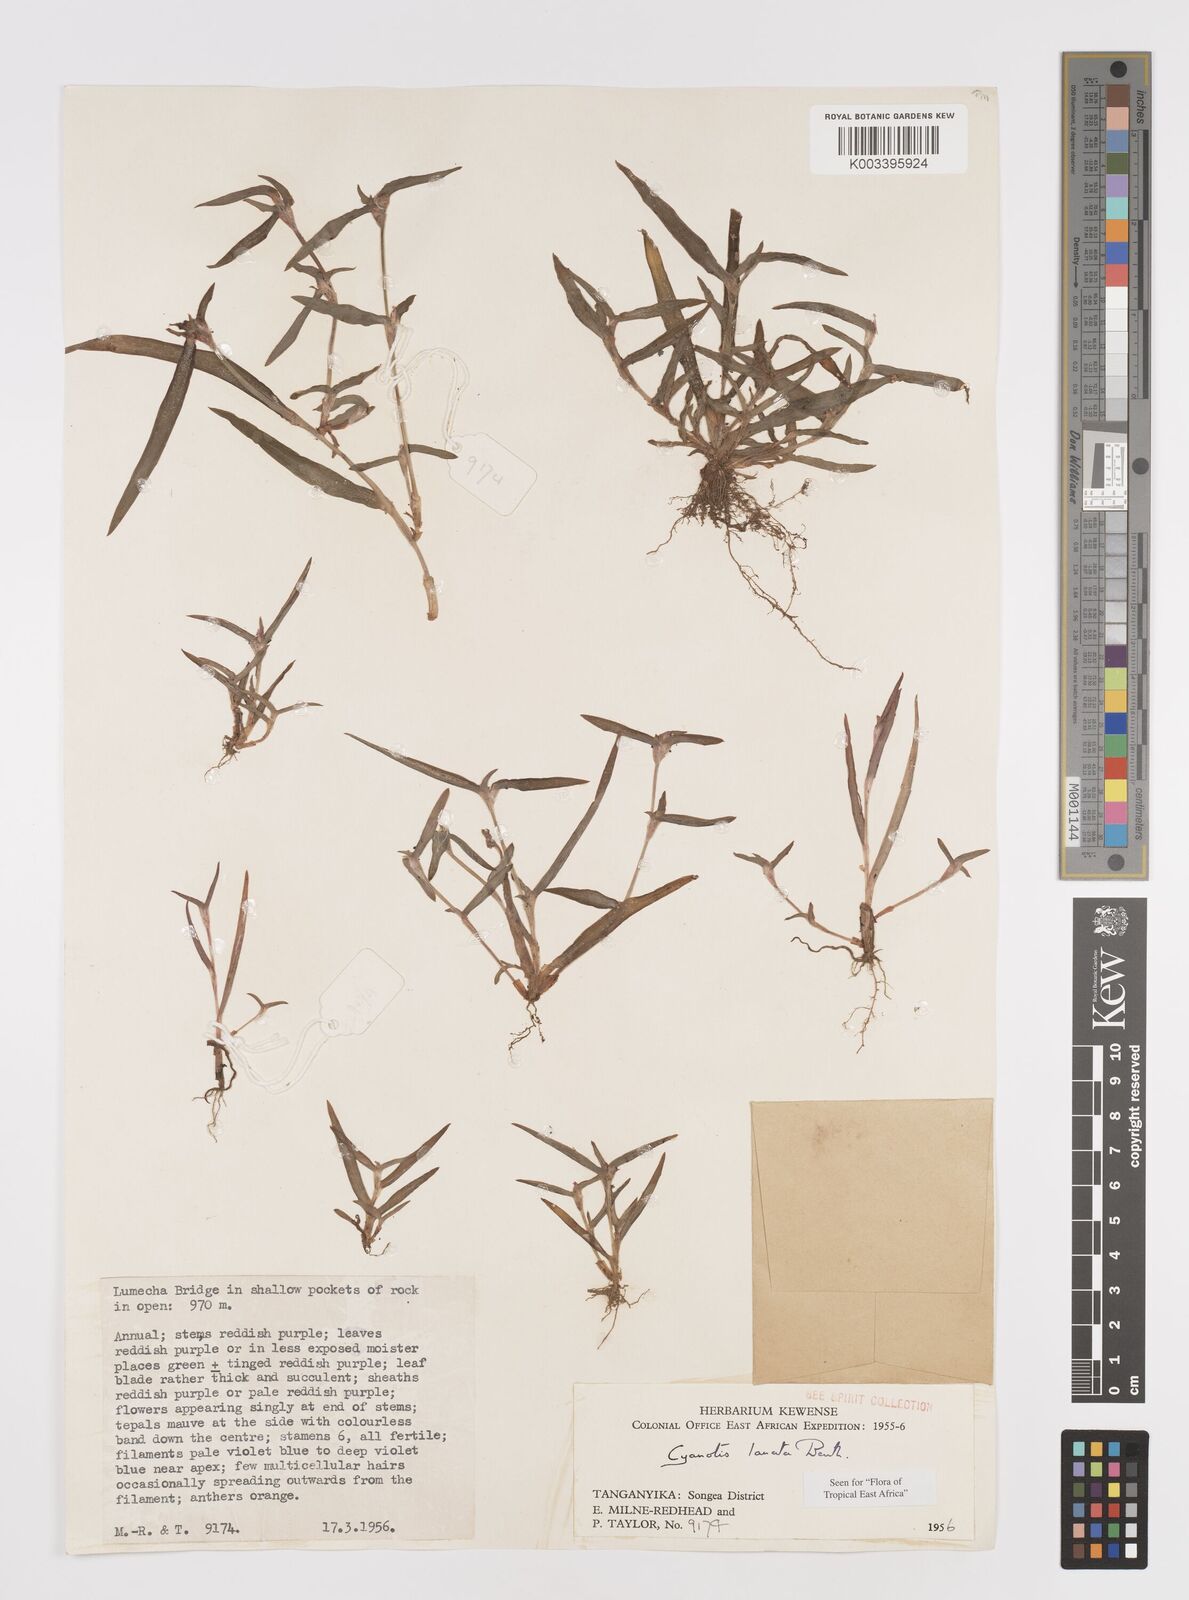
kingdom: Plantae
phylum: Tracheophyta
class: Liliopsida
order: Commelinales
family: Commelinaceae
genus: Cyanotis
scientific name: Cyanotis lanata
